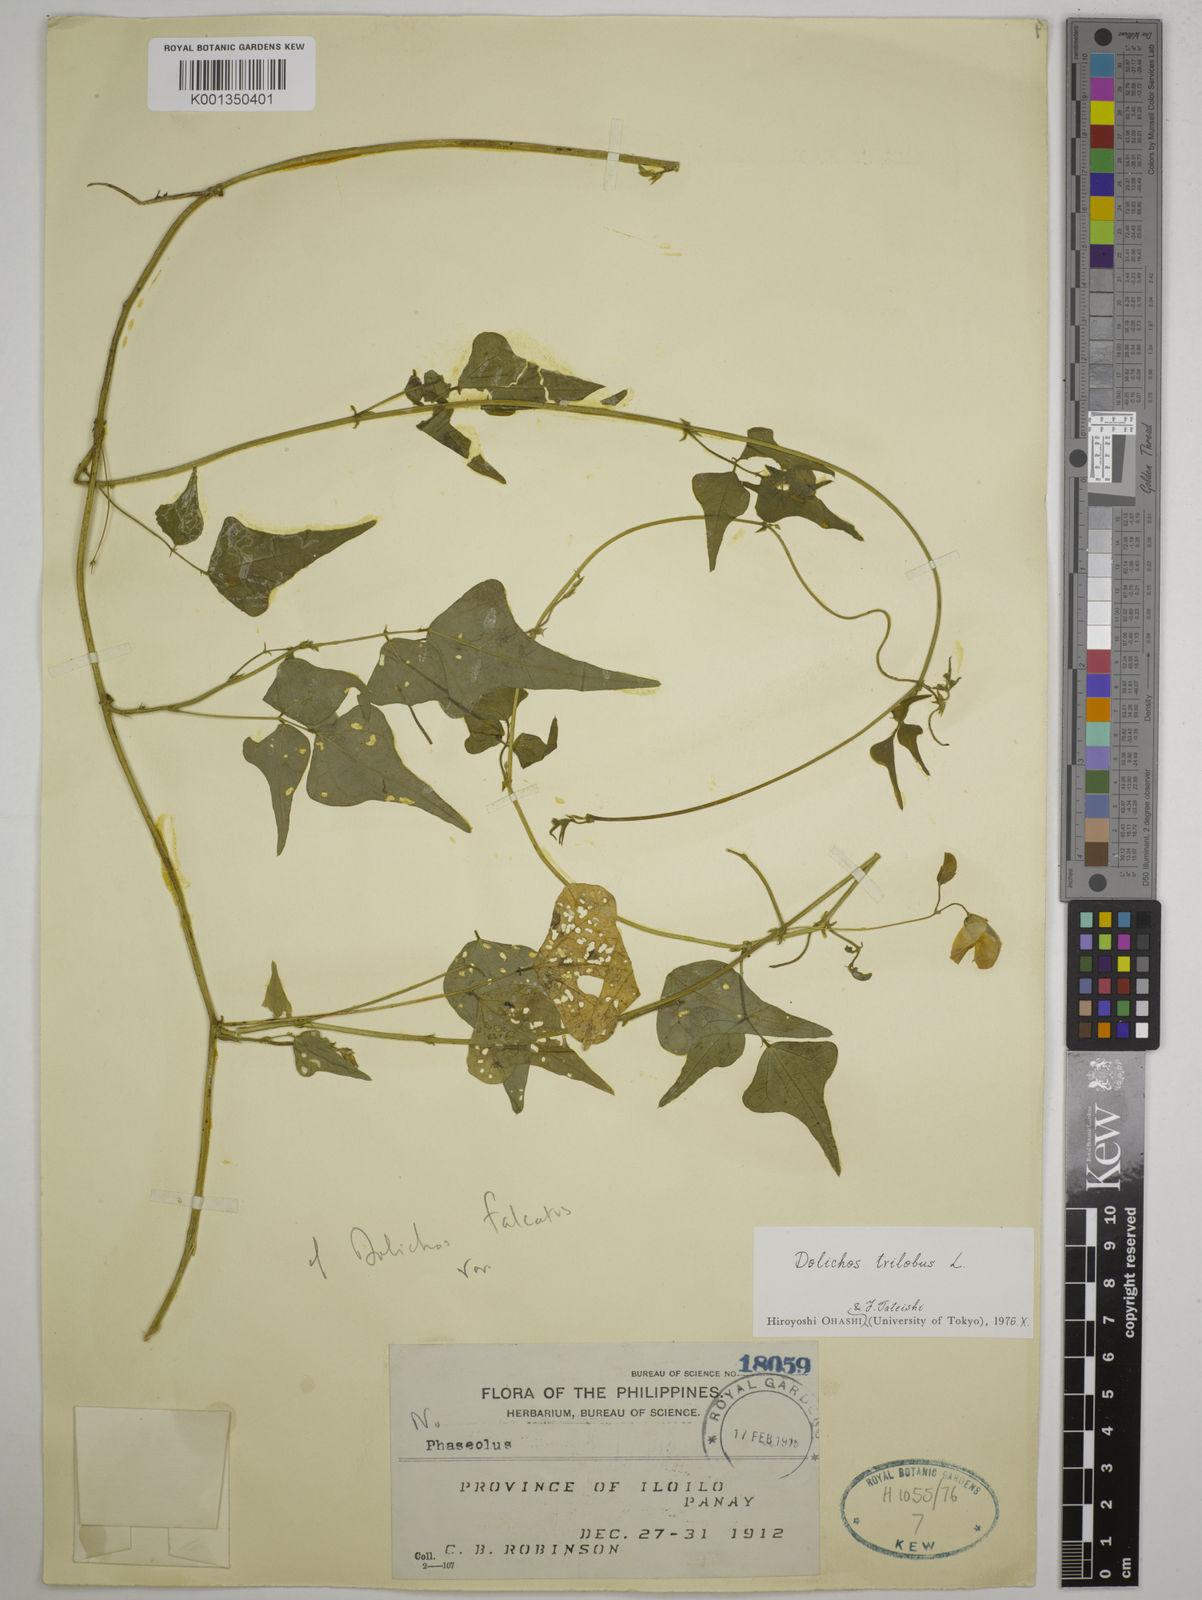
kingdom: Plantae
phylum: Tracheophyta
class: Magnoliopsida
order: Fabales
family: Fabaceae
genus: Dolichos
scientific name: Dolichos
